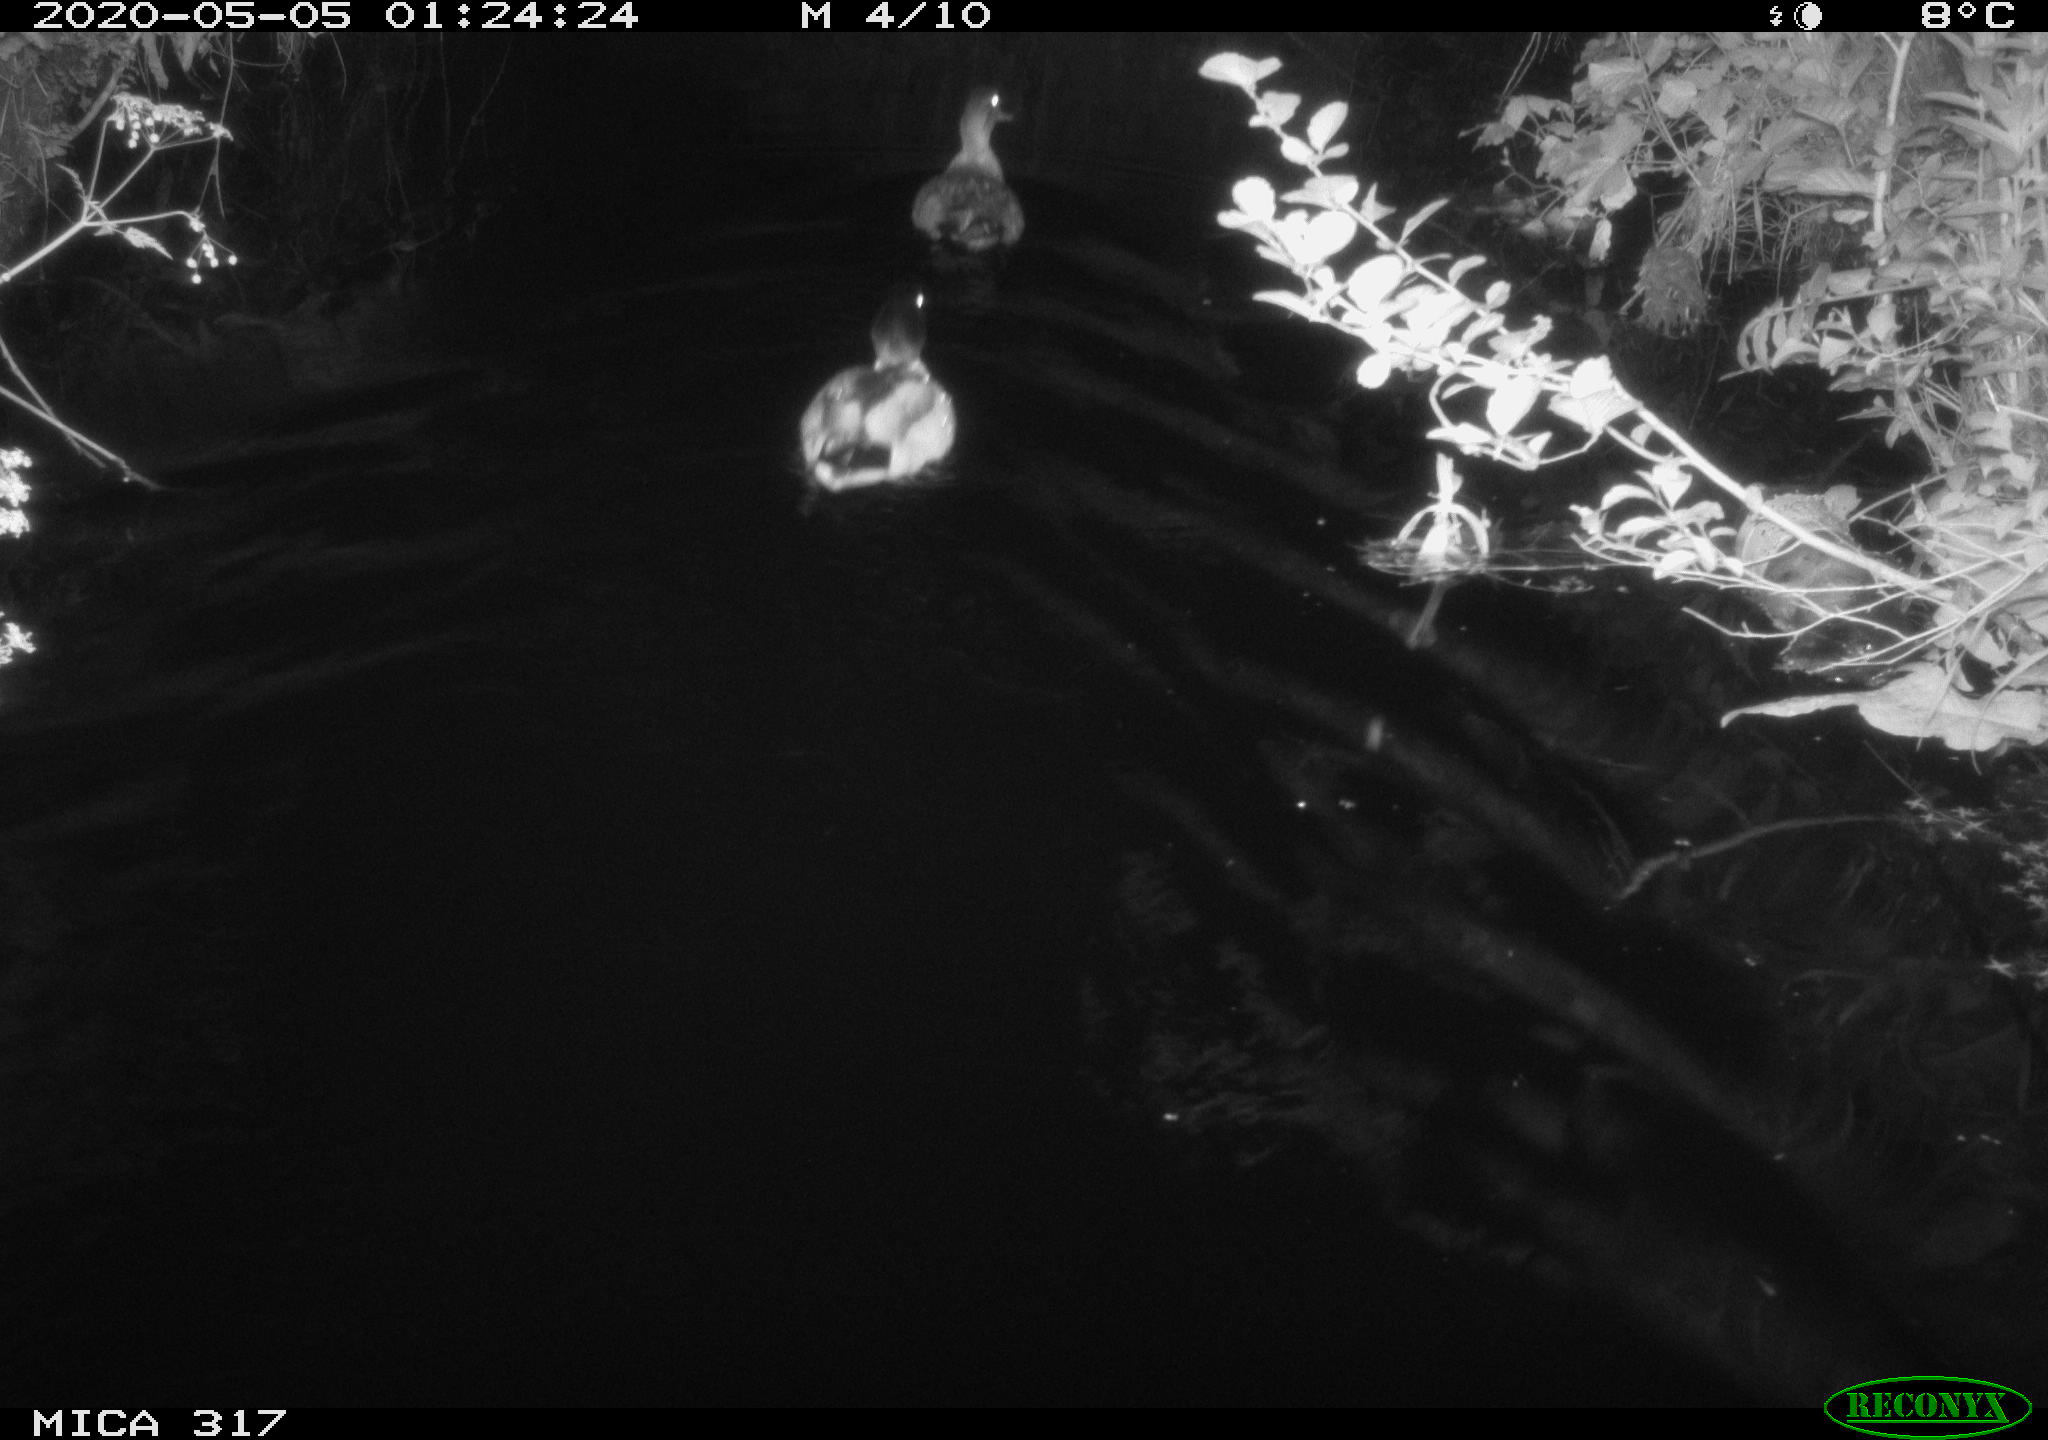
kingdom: Animalia
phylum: Chordata
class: Aves
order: Anseriformes
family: Anatidae
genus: Anas
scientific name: Anas platyrhynchos
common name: Mallard
